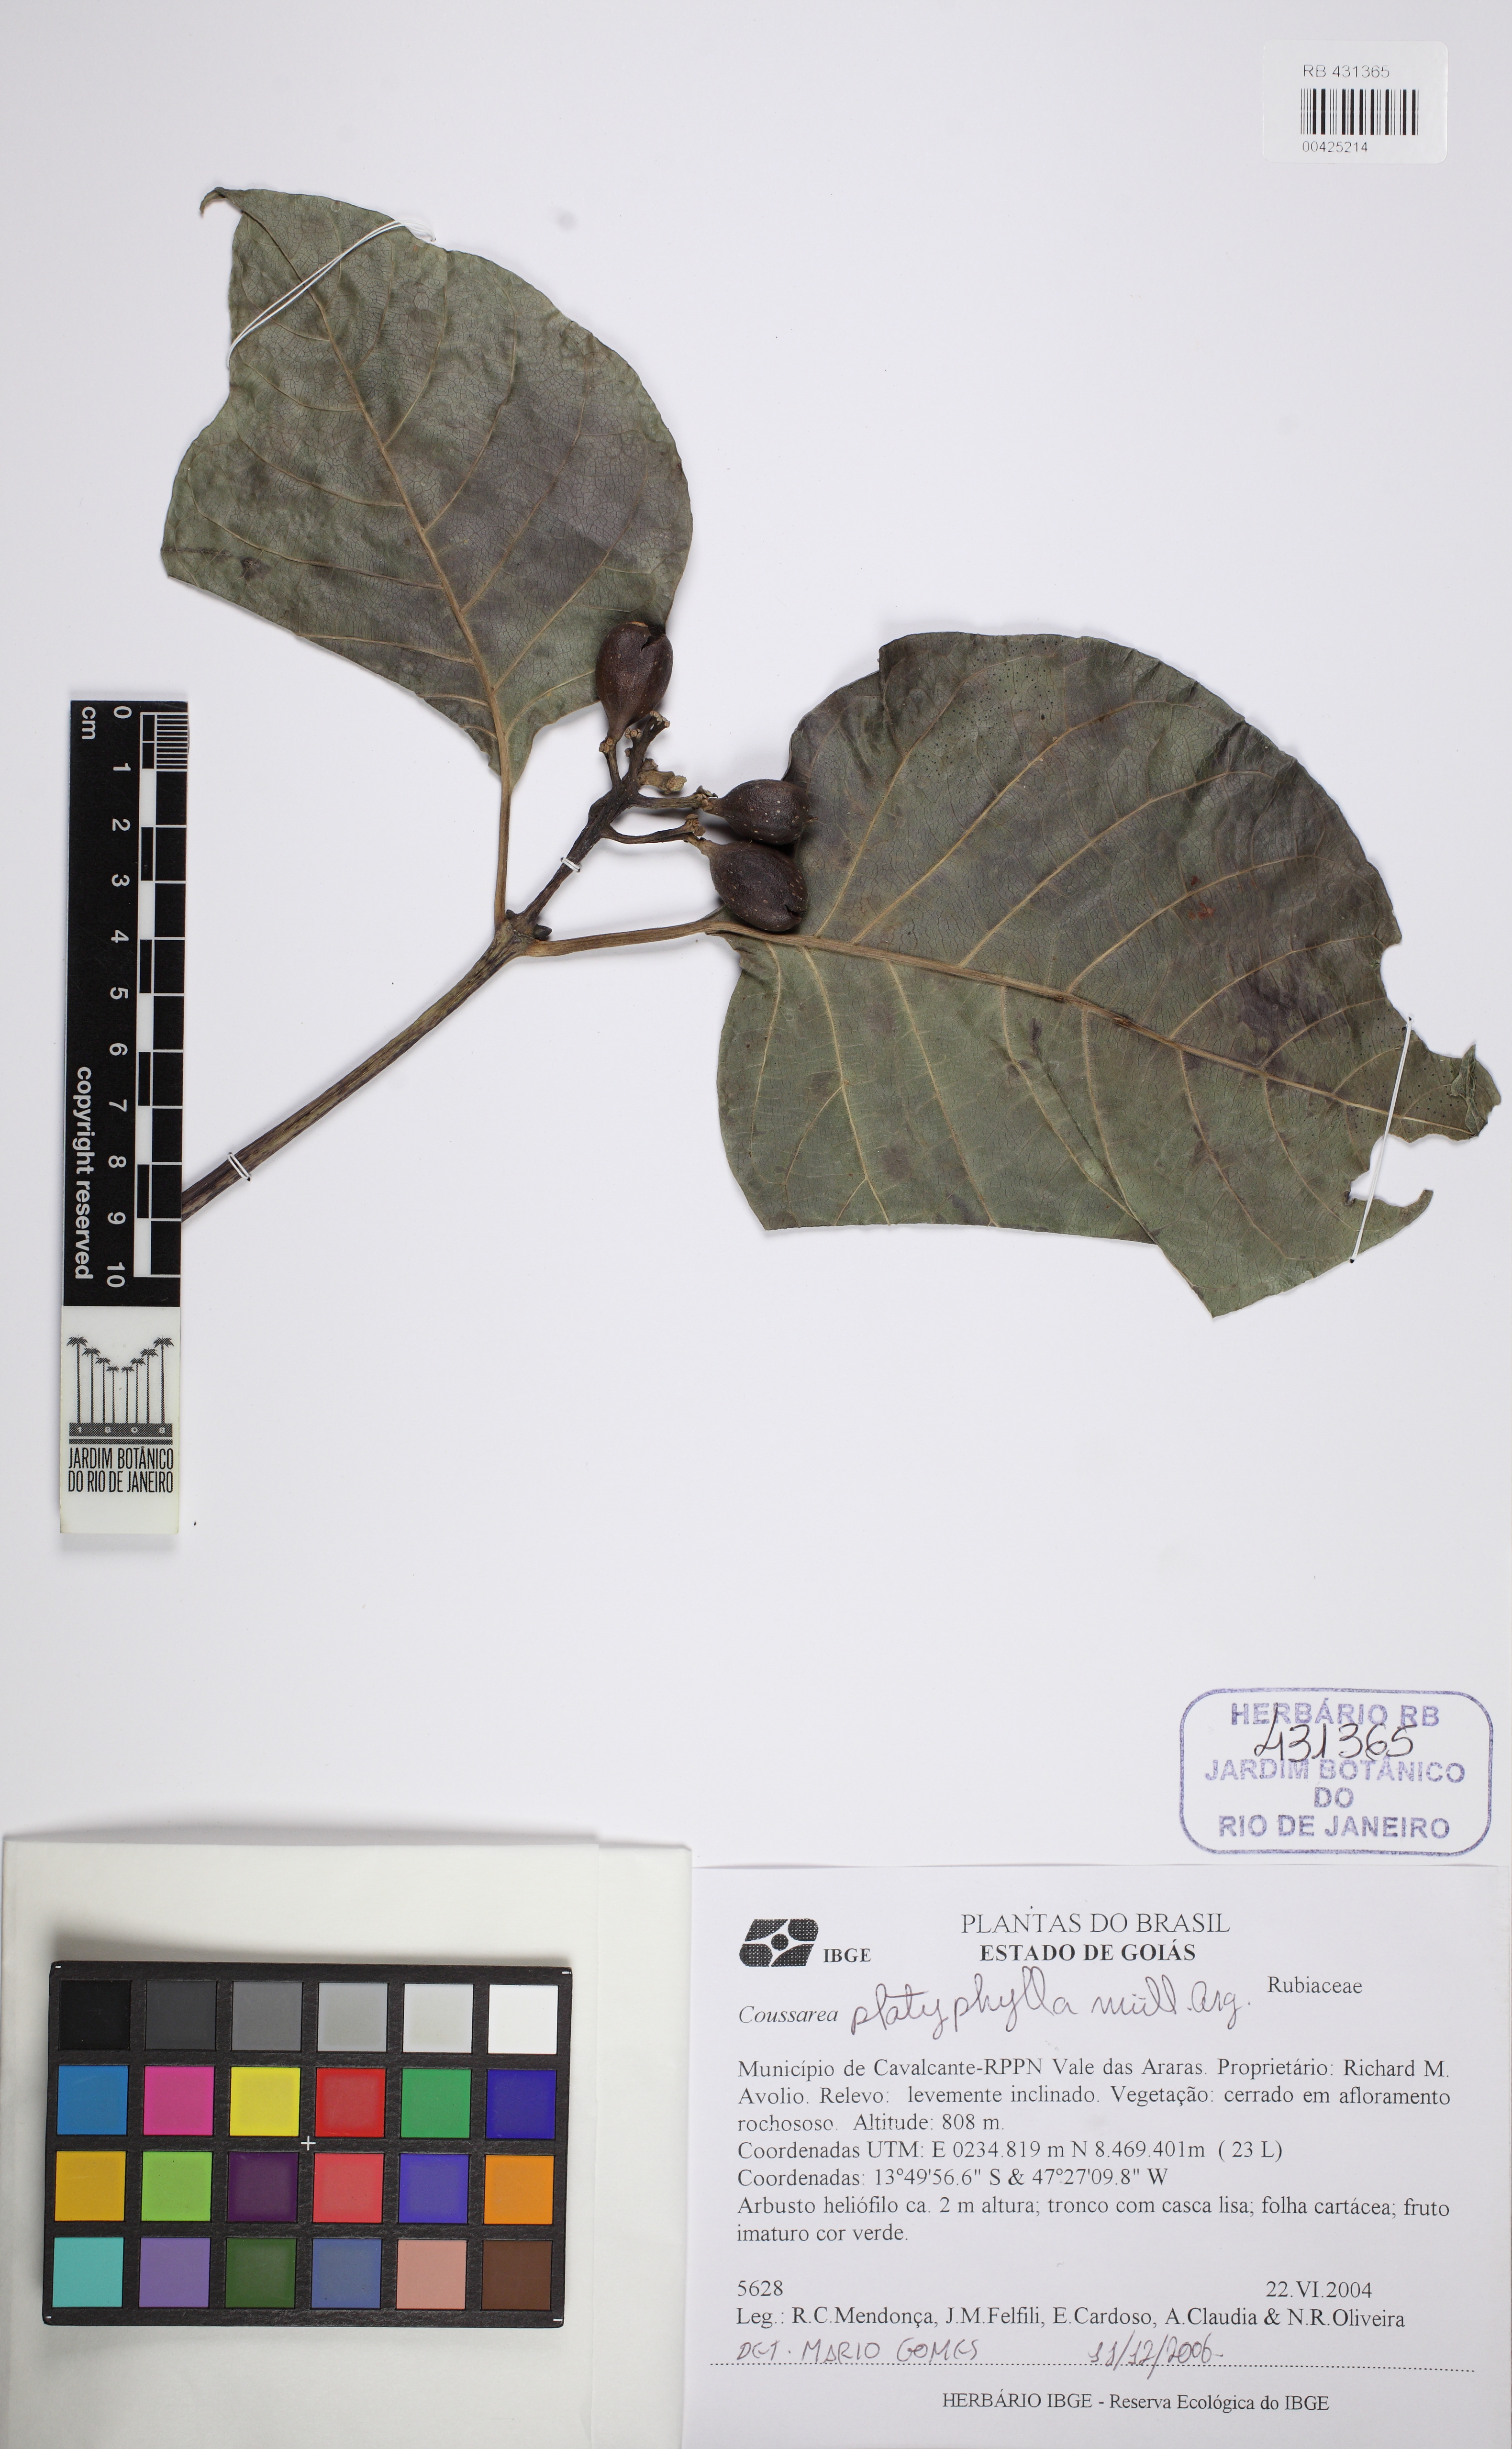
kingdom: Plantae
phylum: Tracheophyta
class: Magnoliopsida
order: Gentianales
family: Rubiaceae
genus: Coussarea
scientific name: Coussarea platyphylla
